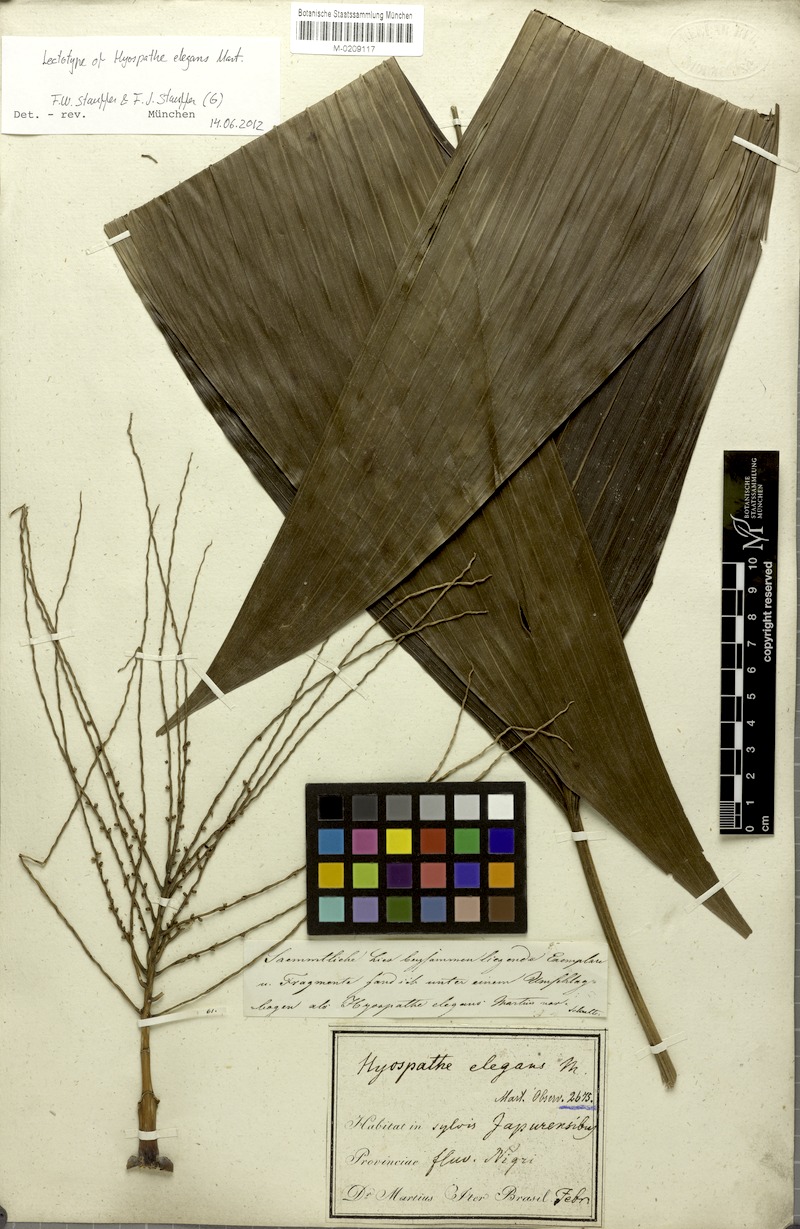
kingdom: Plantae
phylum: Tracheophyta
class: Liliopsida
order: Arecales
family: Arecaceae
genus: Hyospathe
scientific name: Hyospathe elegans
